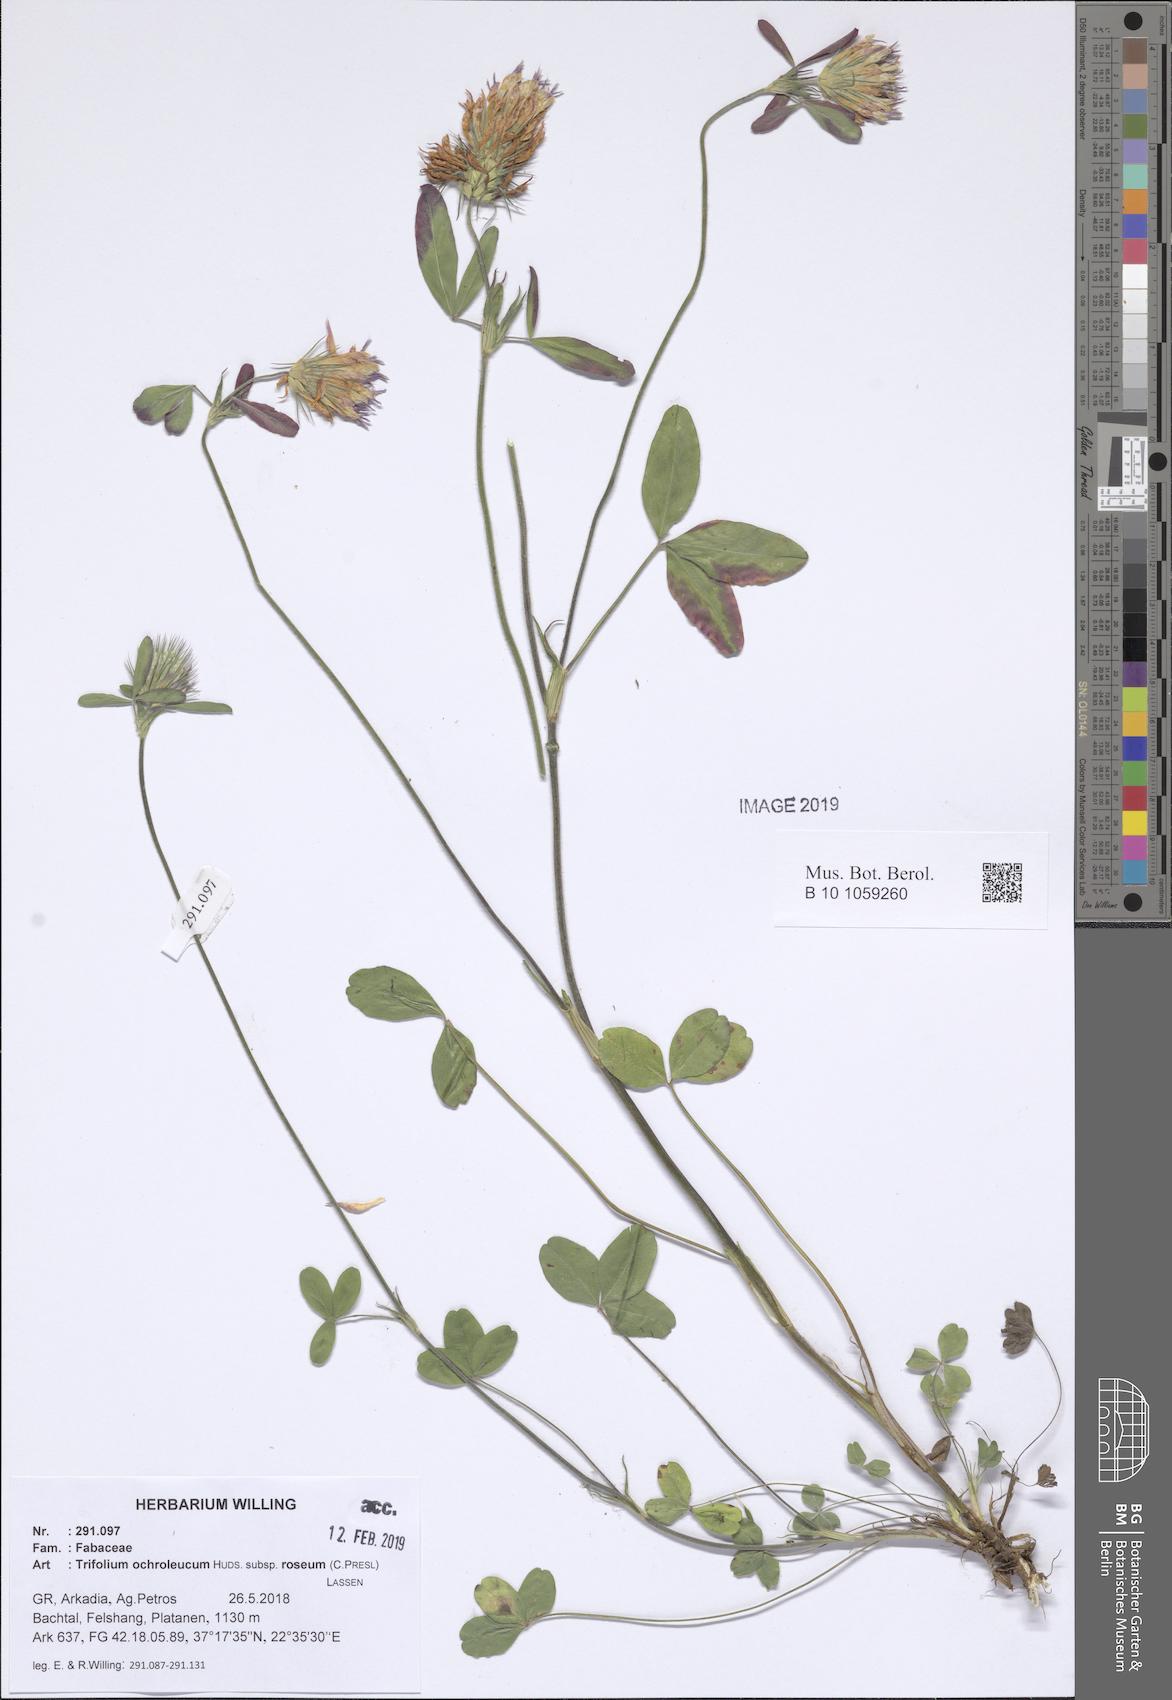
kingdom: Plantae
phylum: Tracheophyta
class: Magnoliopsida
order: Fabales
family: Fabaceae
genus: Trifolium
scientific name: Trifolium ochroleucon
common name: Sulphur clover
